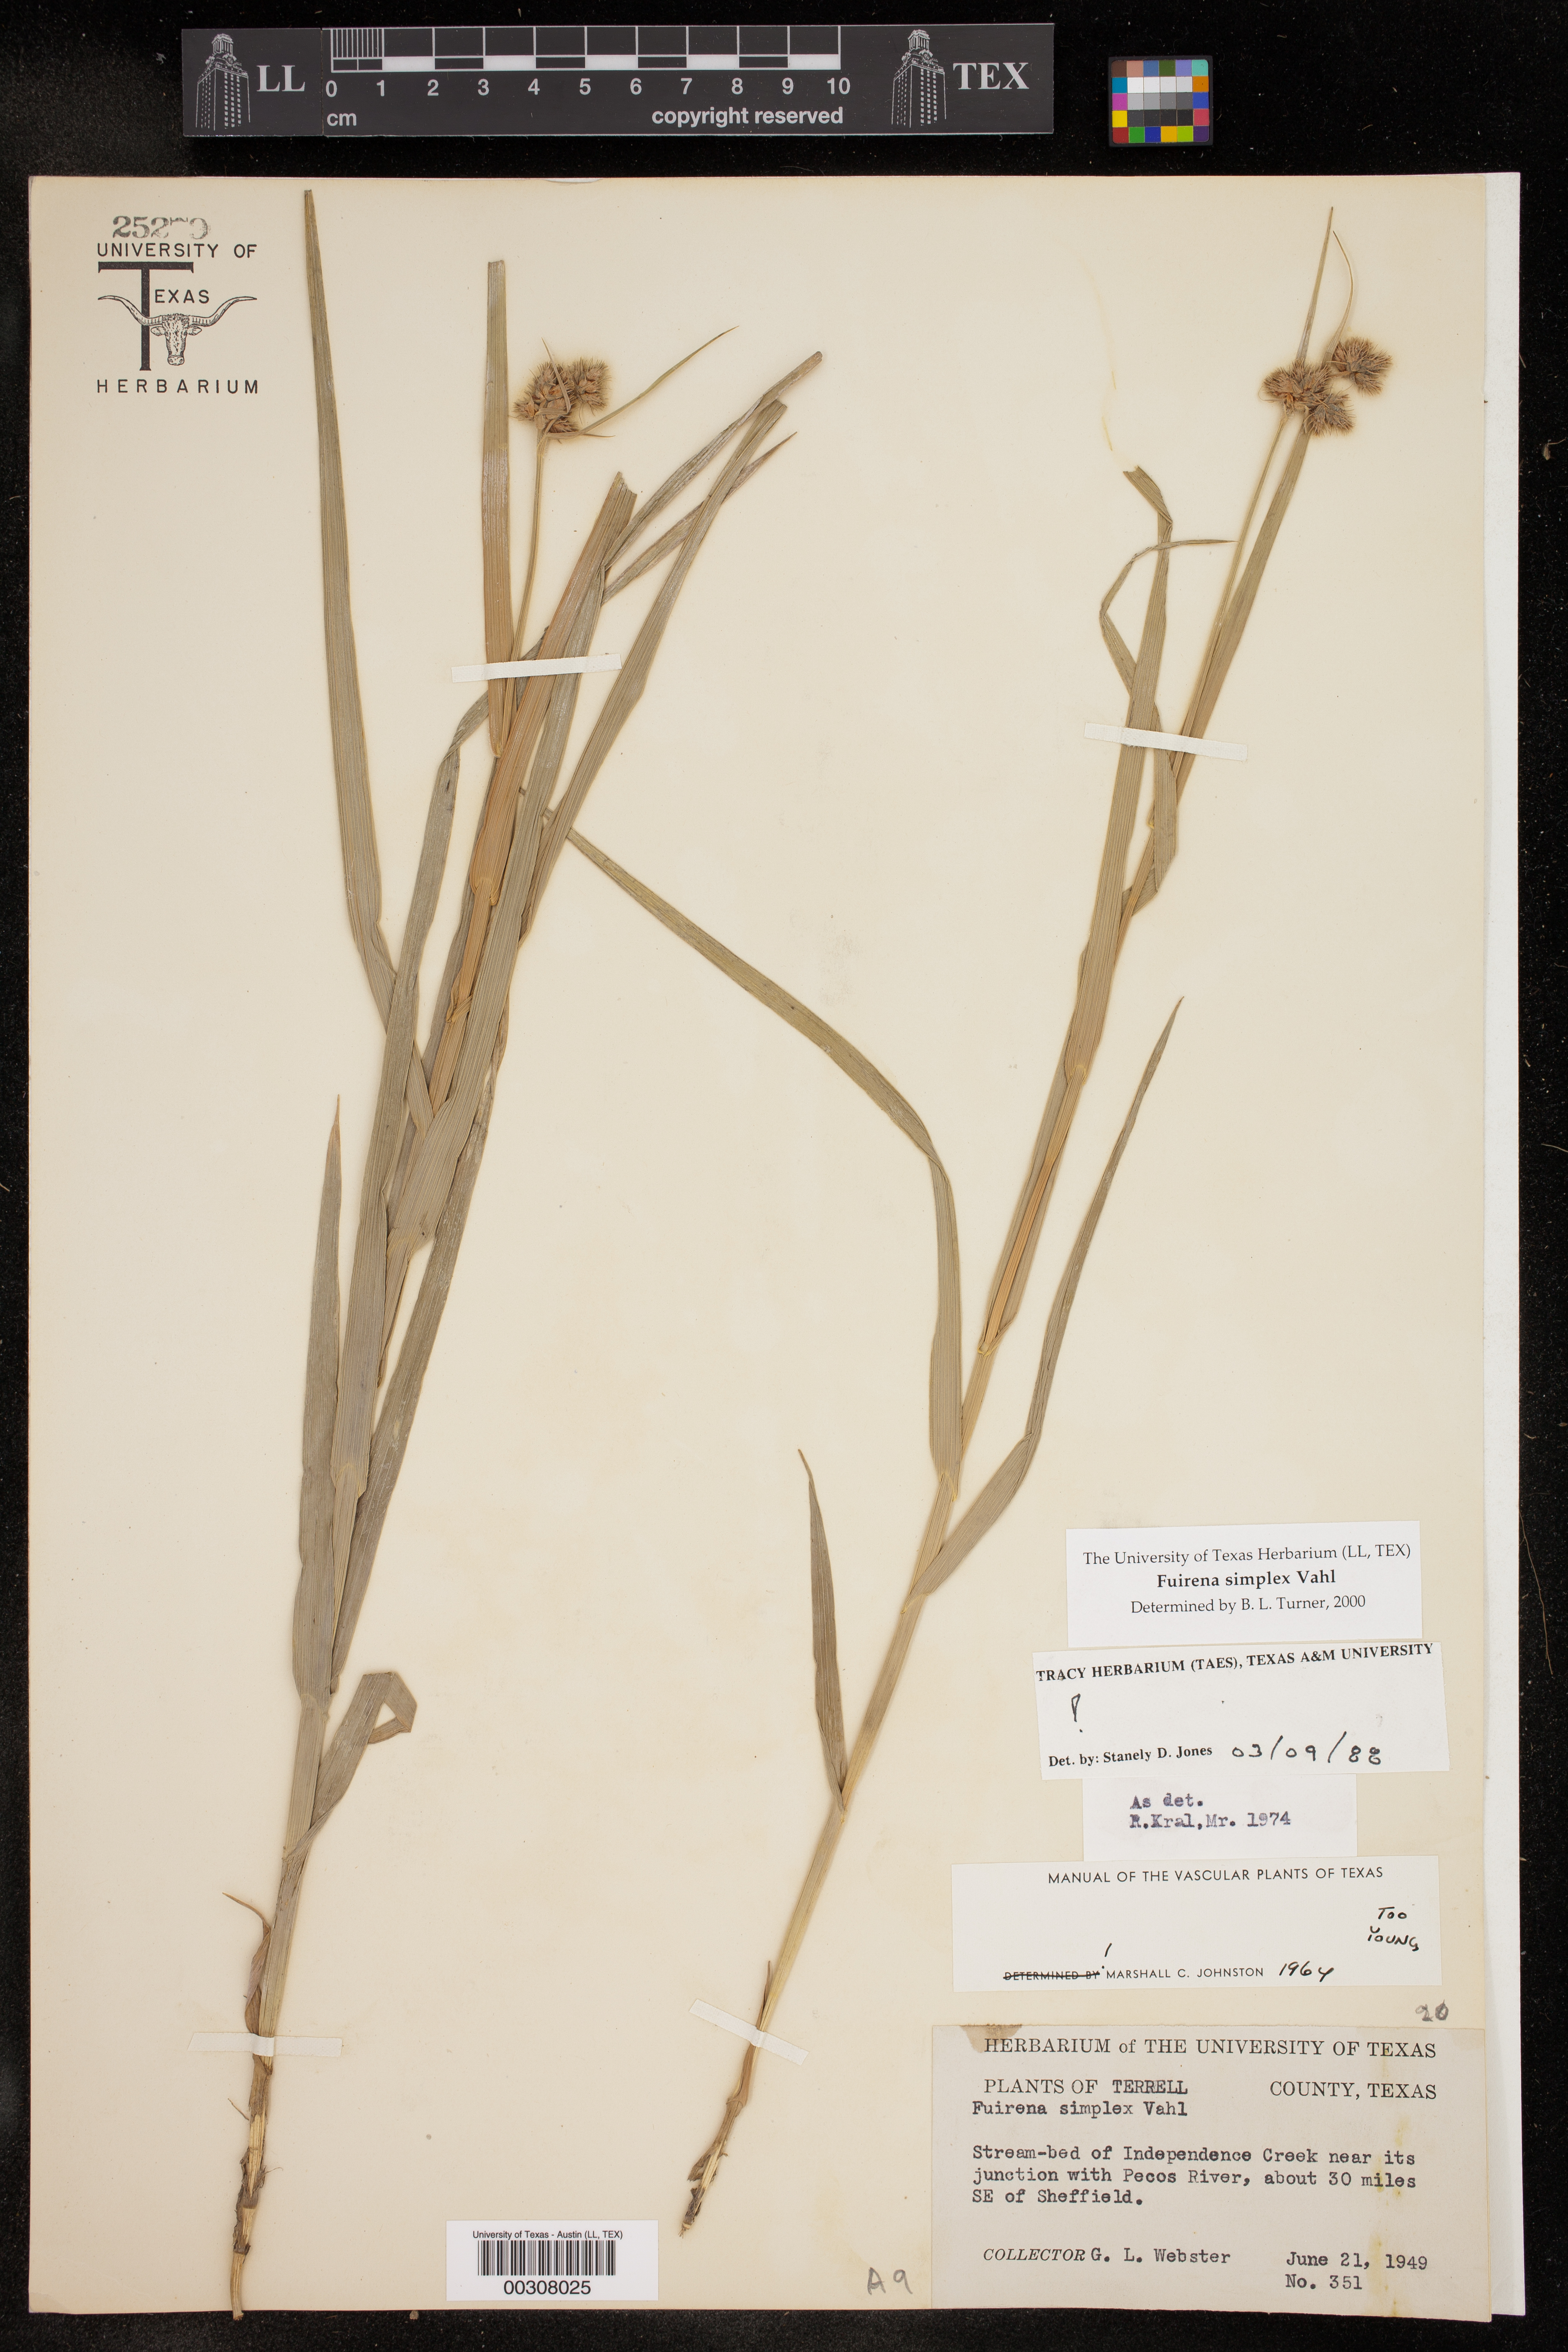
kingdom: Plantae
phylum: Tracheophyta
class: Liliopsida
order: Poales
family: Cyperaceae
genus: Fuirena
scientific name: Fuirena simplex
